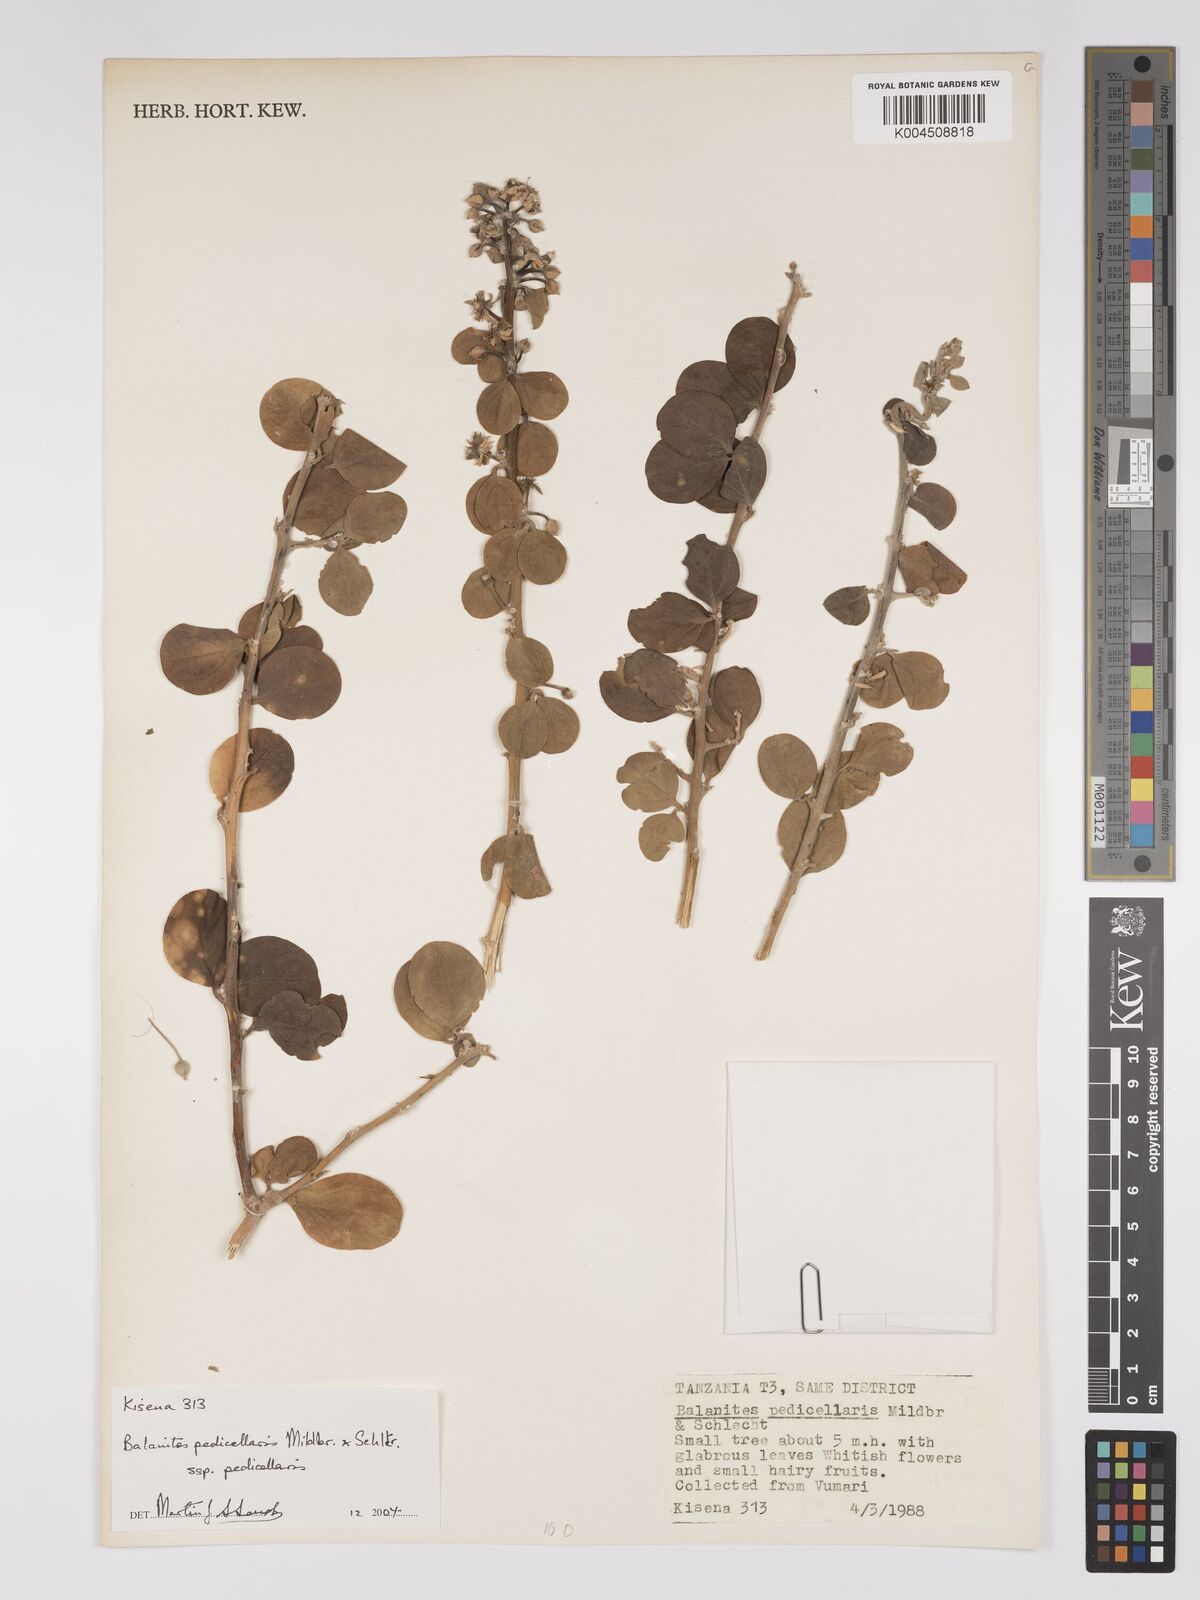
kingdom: Plantae
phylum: Tracheophyta
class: Magnoliopsida
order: Zygophyllales
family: Zygophyllaceae
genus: Balanites
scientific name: Balanites pedicellaris
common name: Small green-thorn
